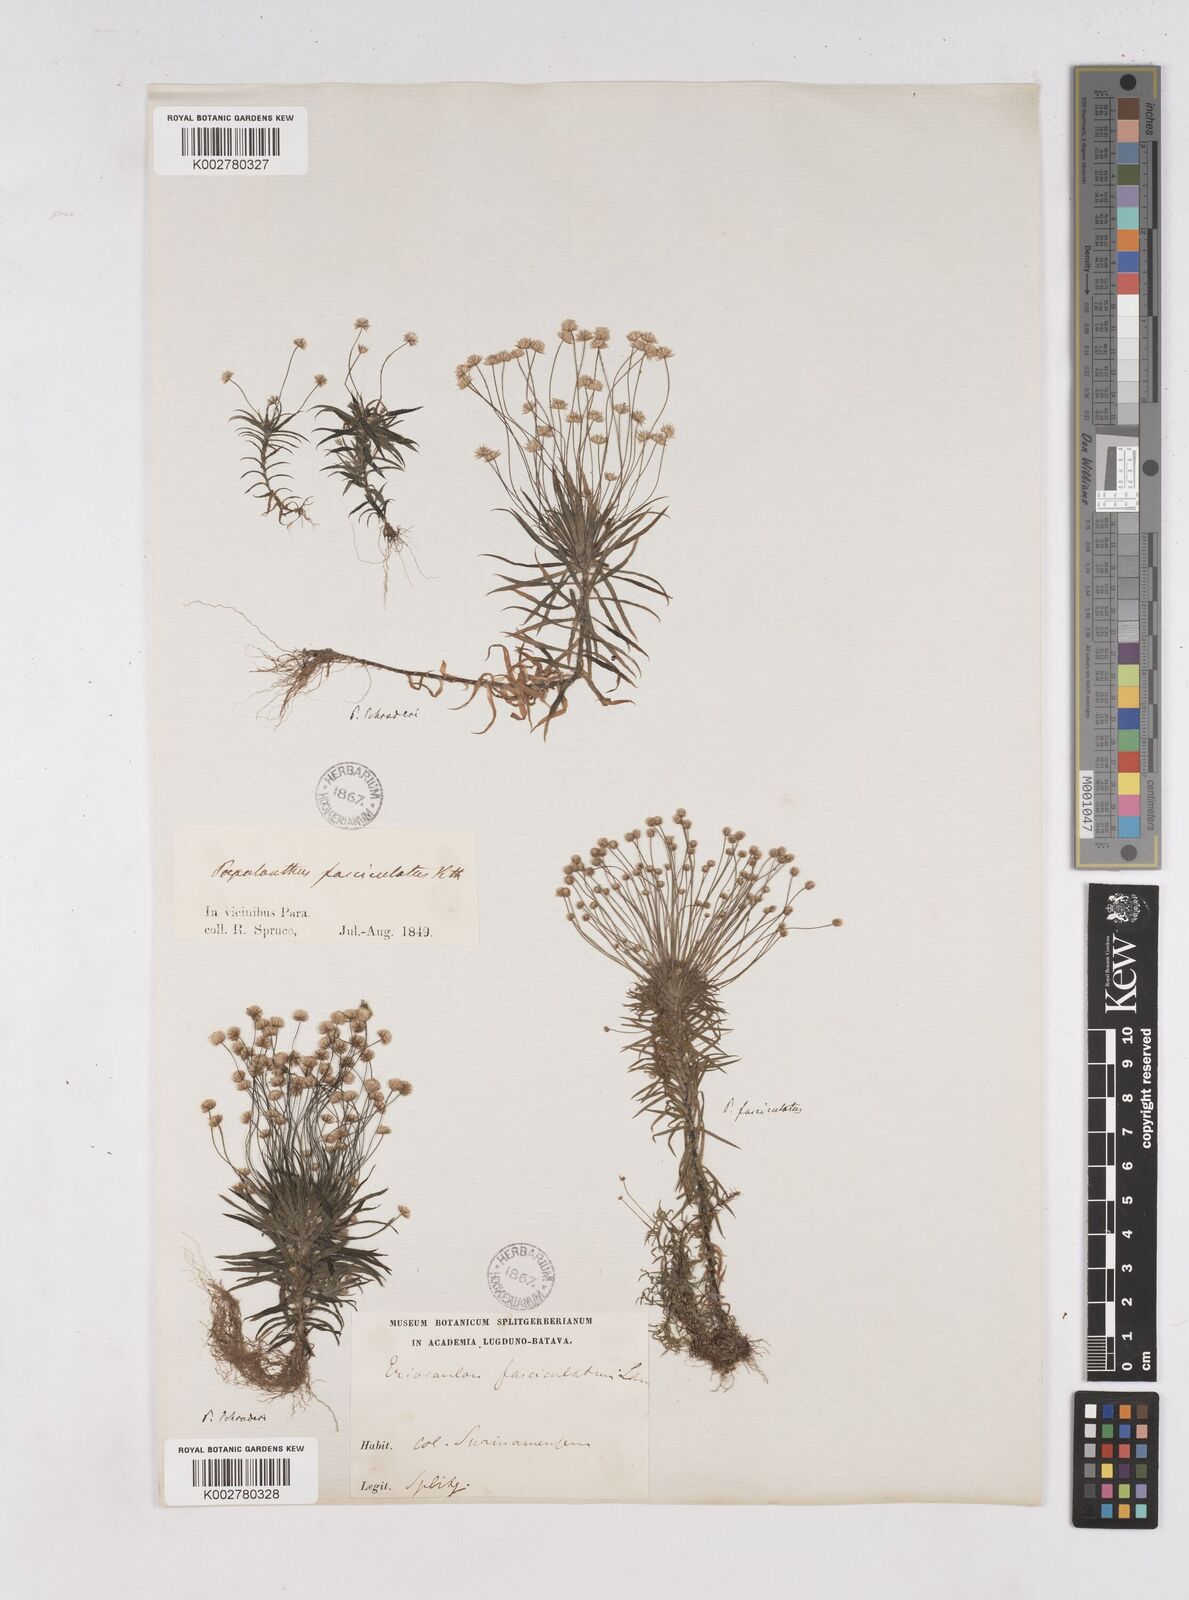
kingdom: Plantae
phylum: Tracheophyta
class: Liliopsida
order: Poales
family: Eriocaulaceae
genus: Paepalanthus
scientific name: Paepalanthus bifidus
